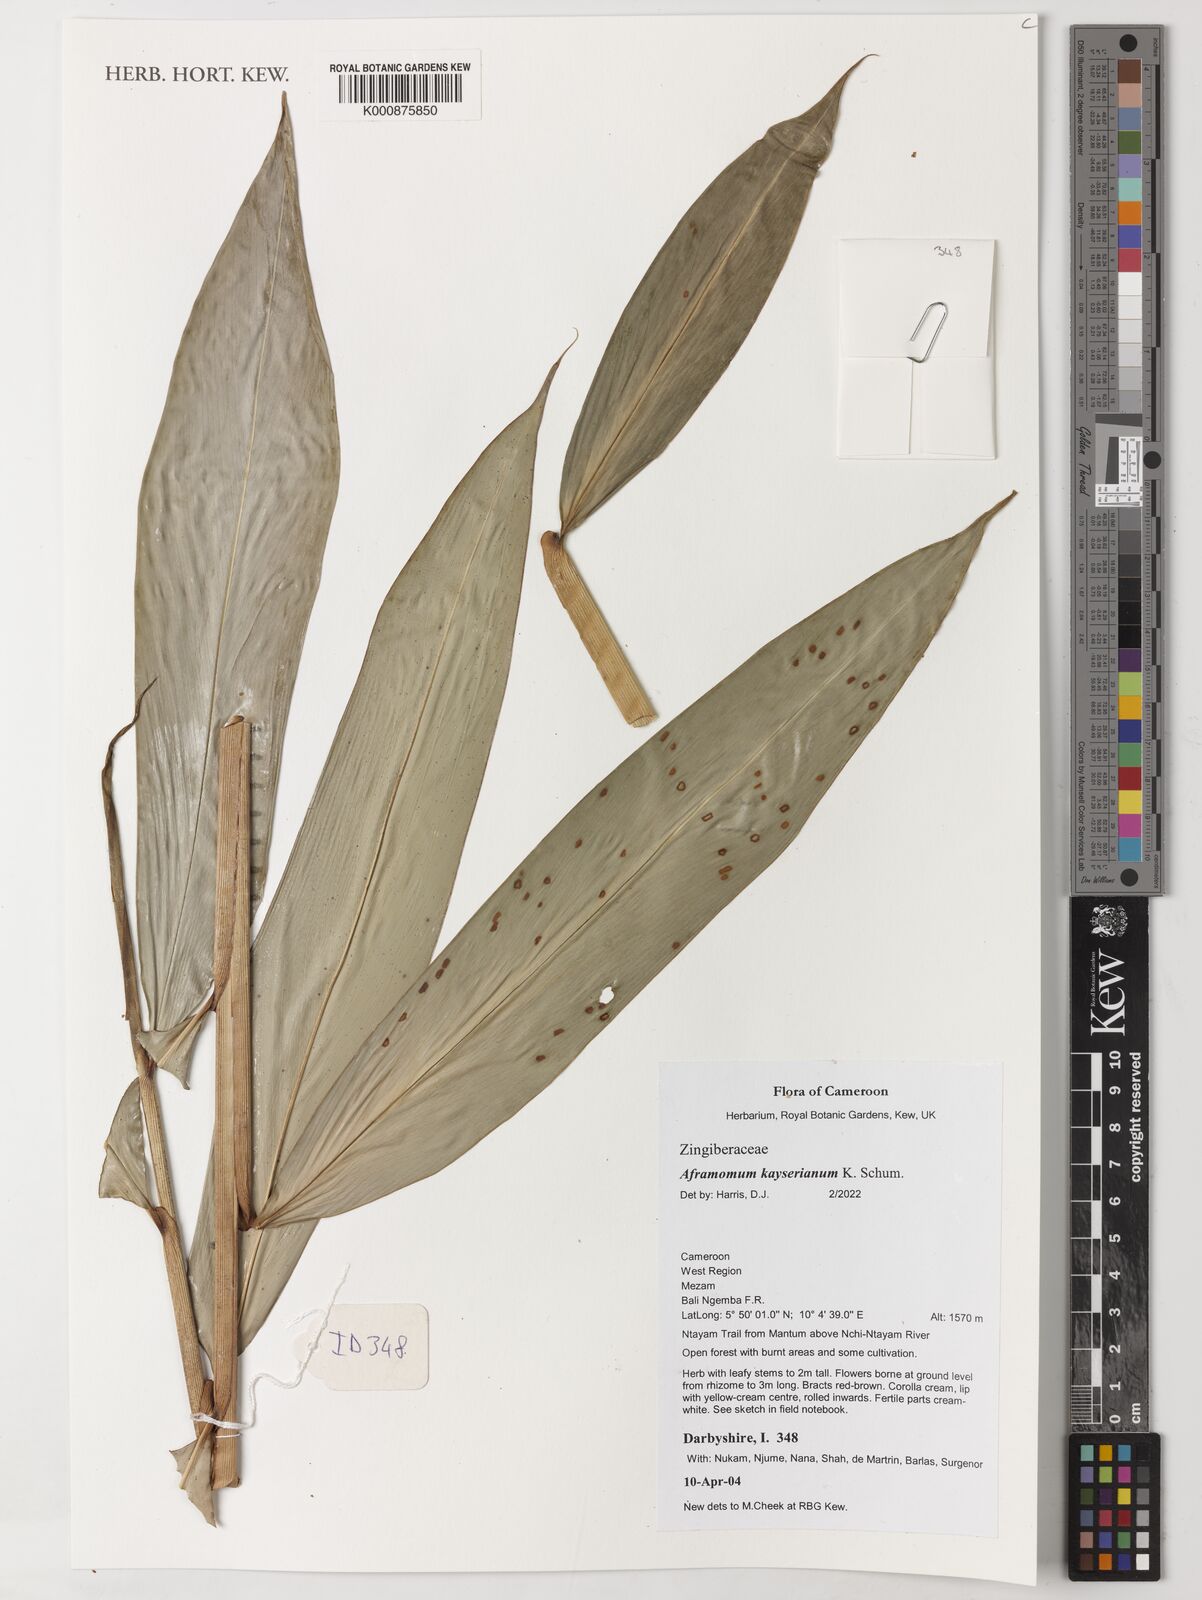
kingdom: Plantae
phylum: Tracheophyta
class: Liliopsida
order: Zingiberales
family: Zingiberaceae
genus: Aframomum
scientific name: Aframomum kayserianum
